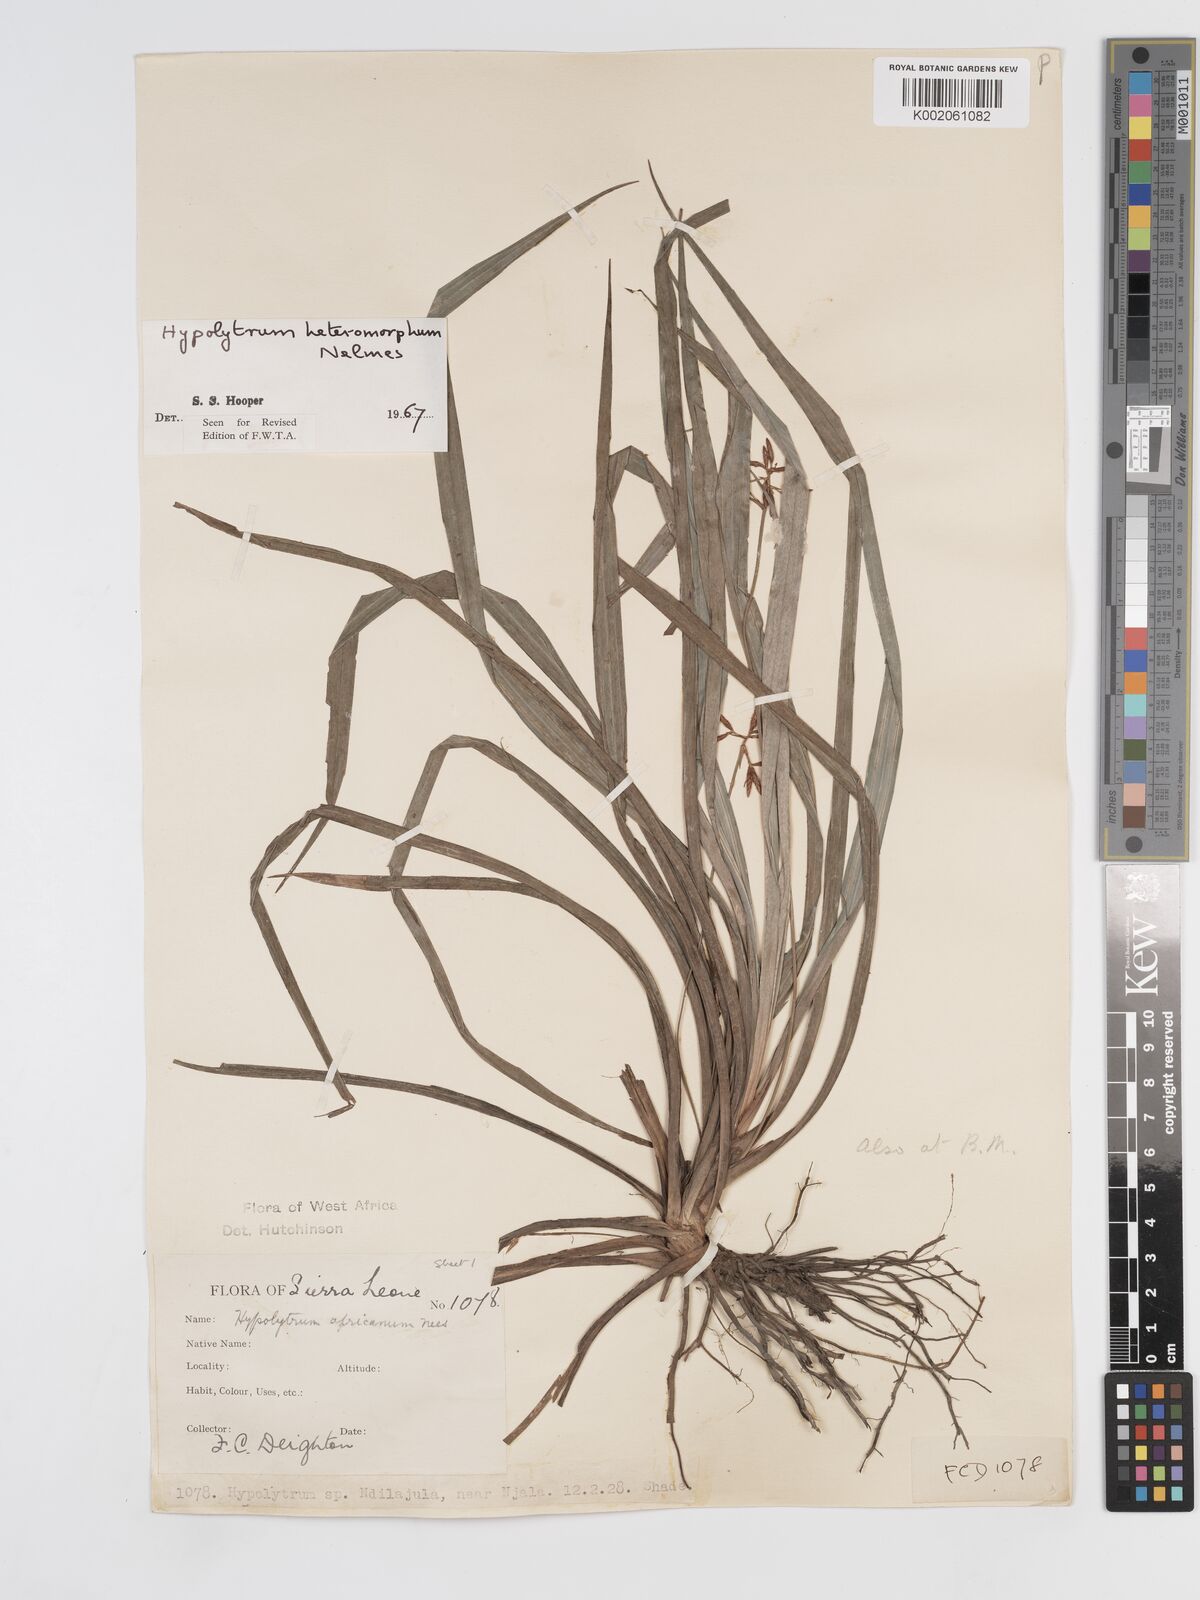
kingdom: Plantae
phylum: Tracheophyta
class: Liliopsida
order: Poales
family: Cyperaceae
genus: Hypolytrum
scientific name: Hypolytrum heteromorphum
